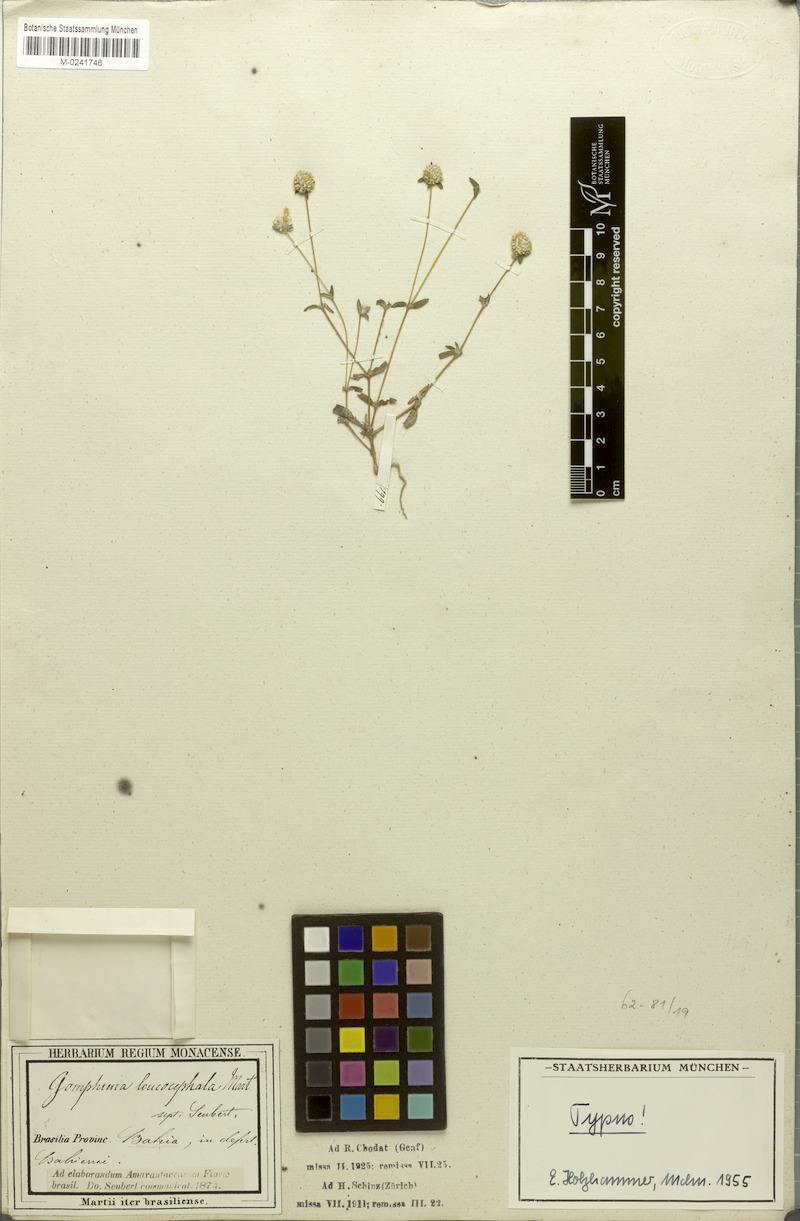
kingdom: Plantae
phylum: Tracheophyta
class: Magnoliopsida
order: Caryophyllales
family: Amaranthaceae
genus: Gomphrena
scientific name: Gomphrena leucocephala
